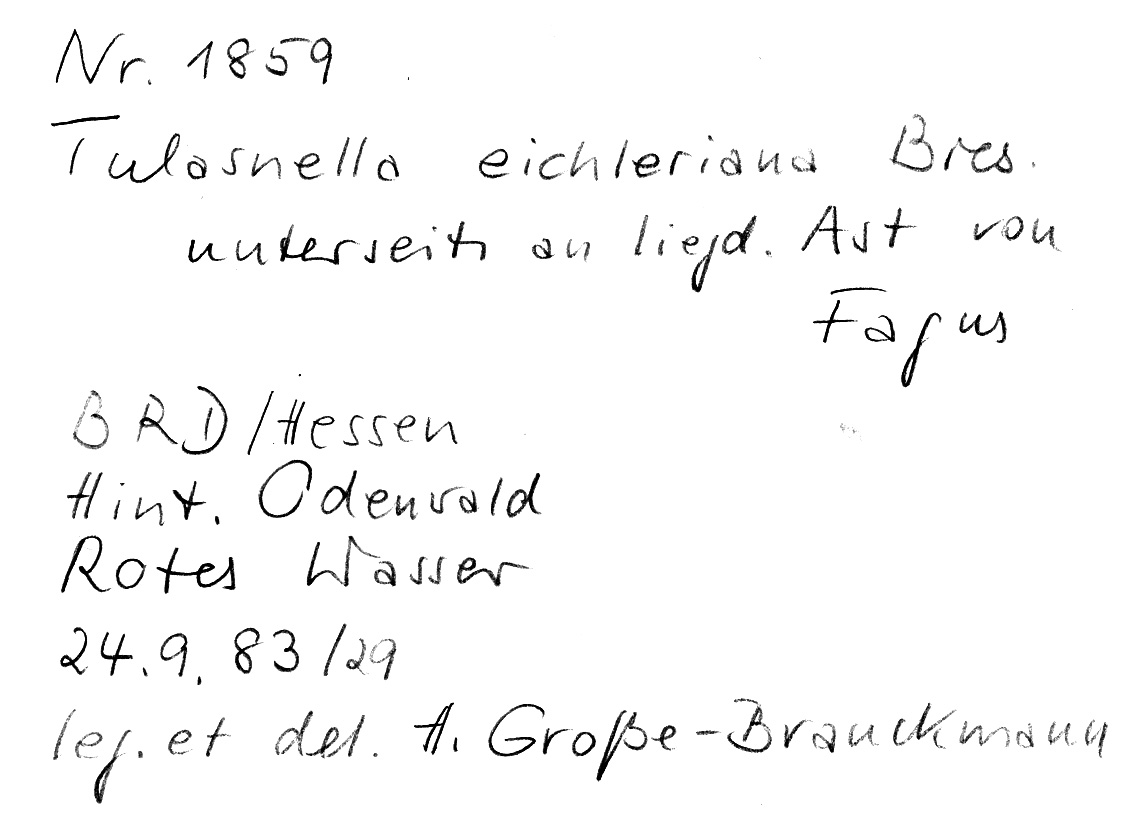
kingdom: Plantae
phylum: Tracheophyta
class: Magnoliopsida
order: Fagales
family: Fagaceae
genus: Fagus
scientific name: Fagus sylvatica
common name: Beech
